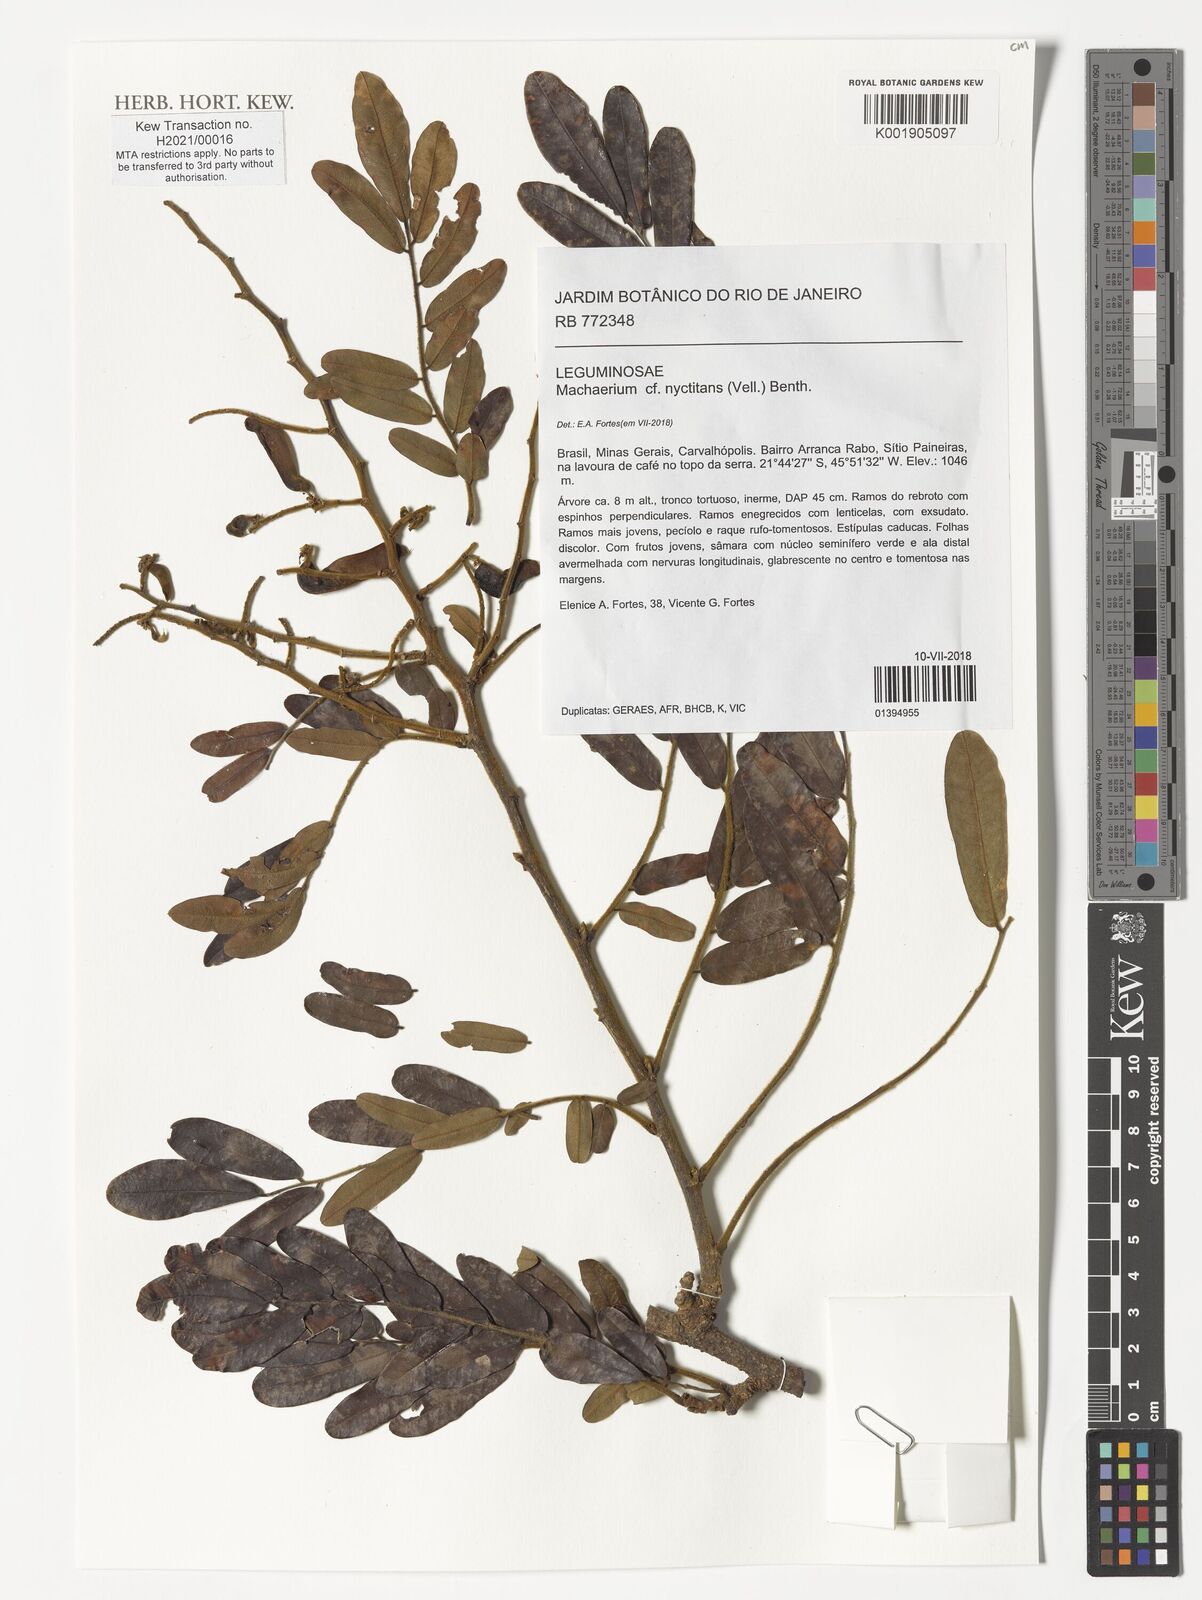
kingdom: Plantae
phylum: Tracheophyta
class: Magnoliopsida
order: Fabales
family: Fabaceae
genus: Machaerium
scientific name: Machaerium nyctitans
